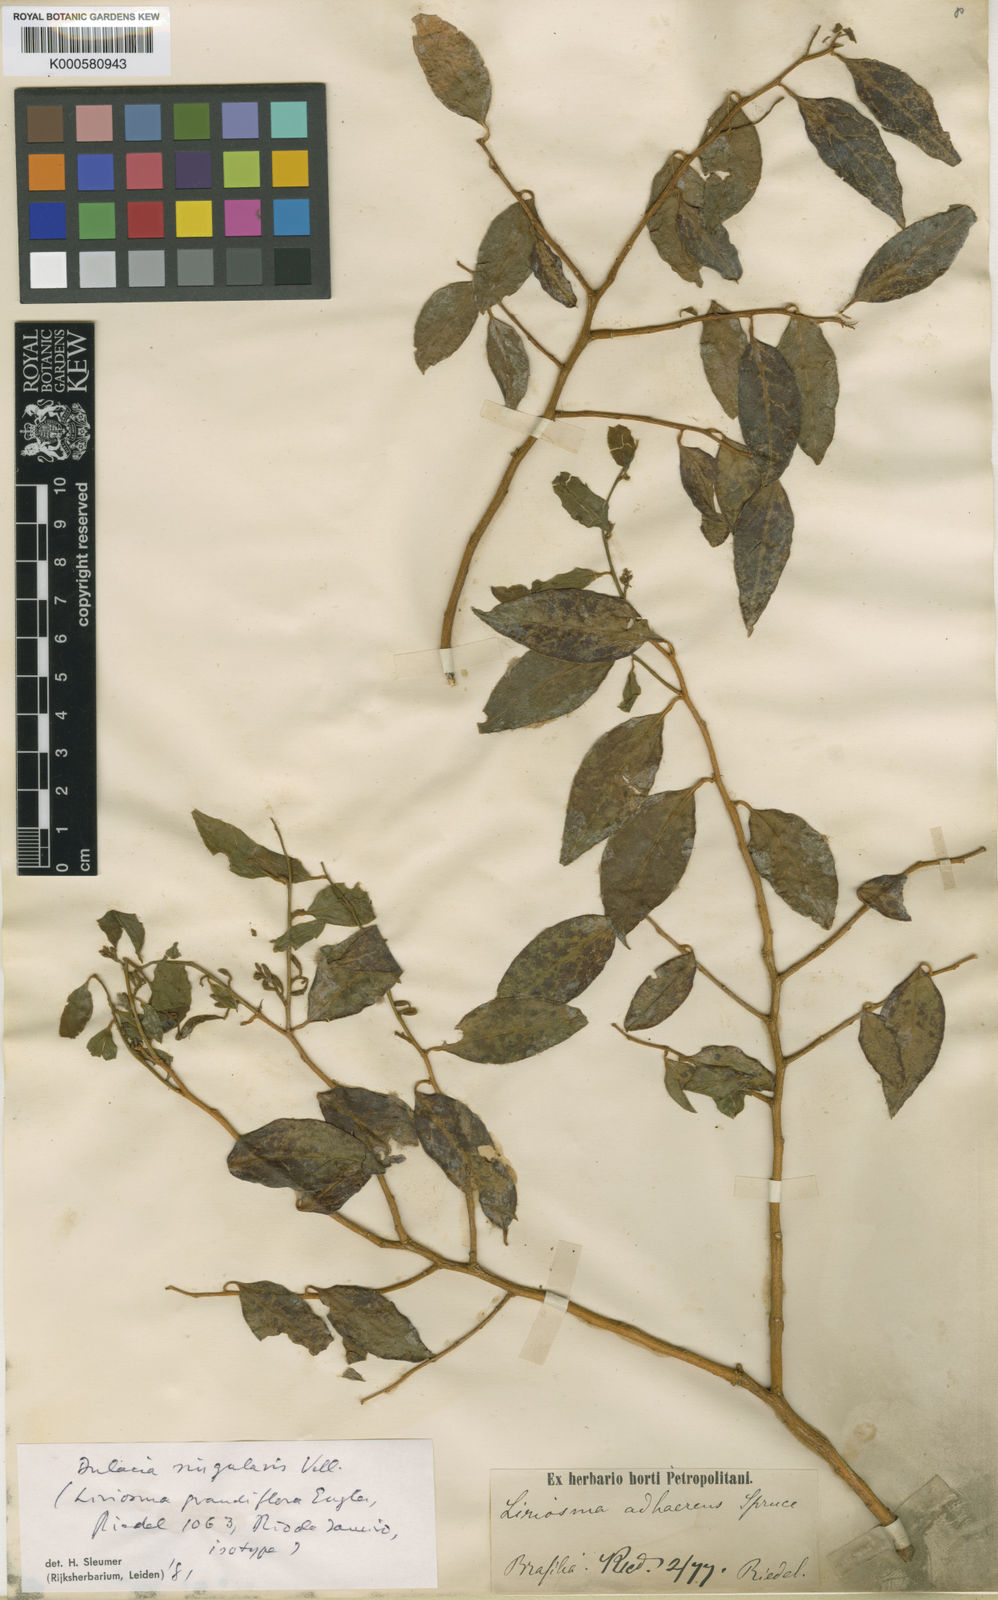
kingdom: Plantae
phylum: Tracheophyta
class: Magnoliopsida
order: Santalales
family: Olacaceae
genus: Dulacia
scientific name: Dulacia singularis
